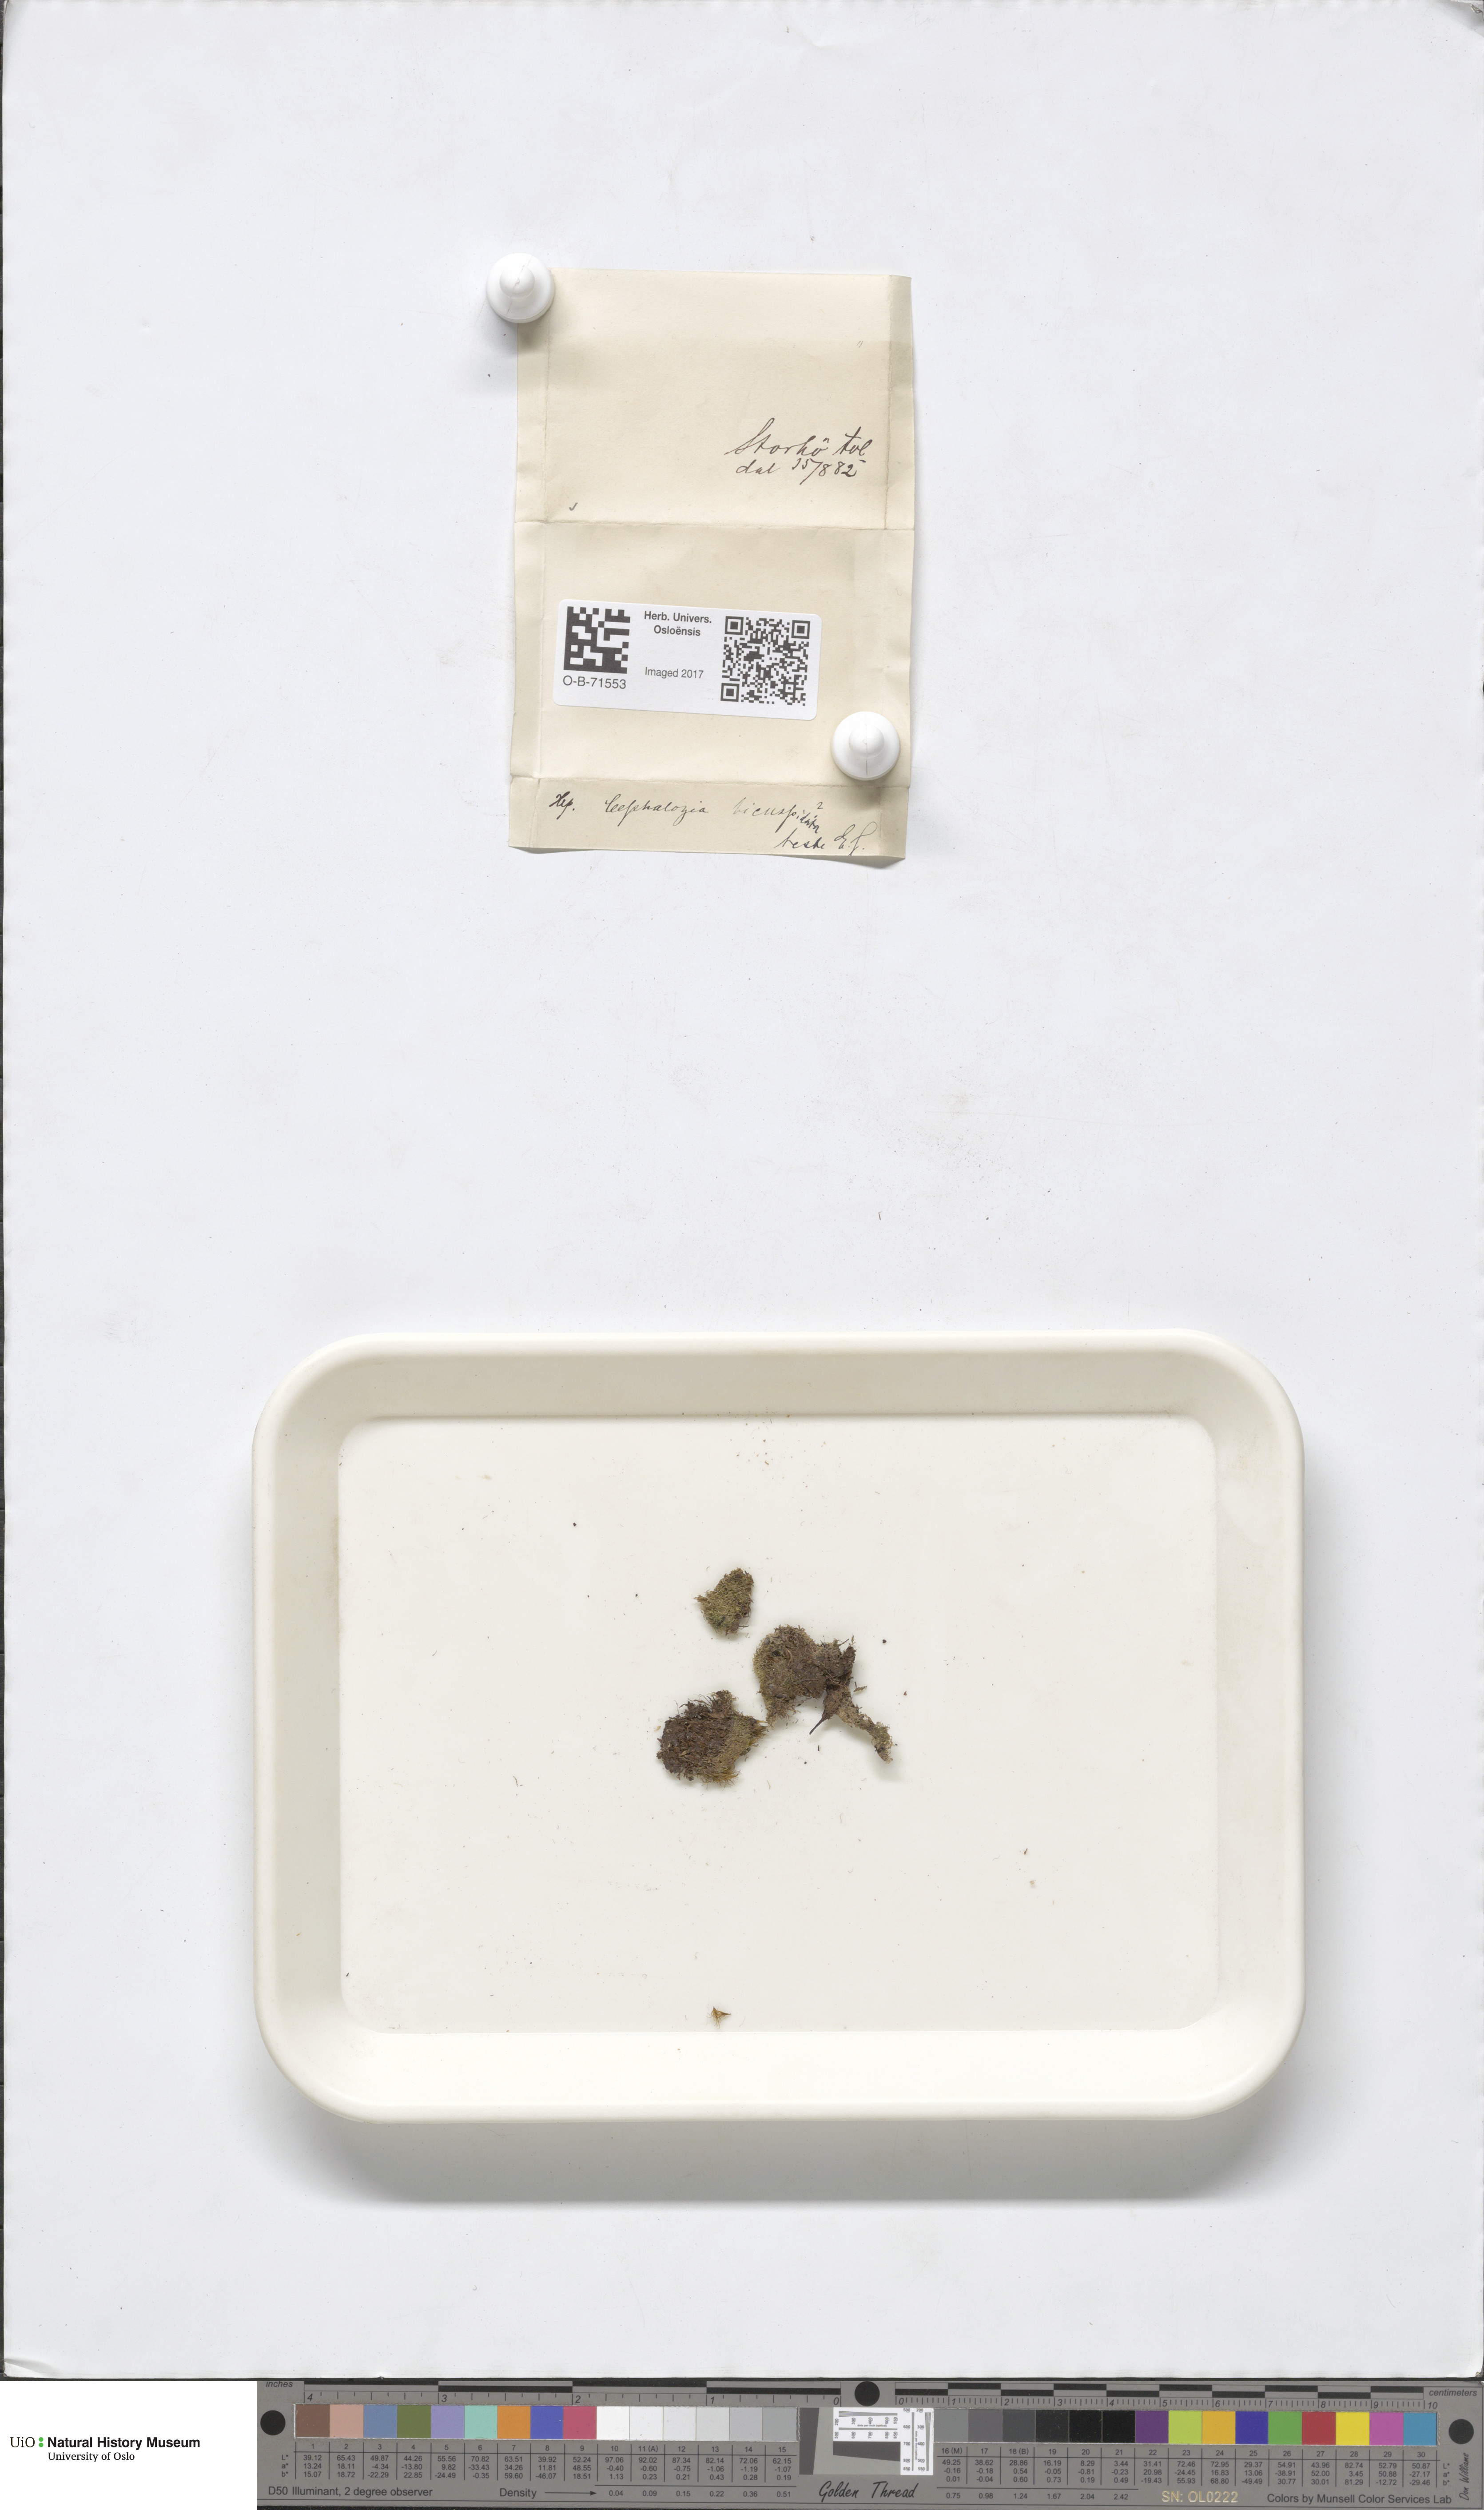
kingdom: Plantae
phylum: Marchantiophyta
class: Jungermanniopsida
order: Jungermanniales
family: Cephaloziaceae
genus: Cephalozia
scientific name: Cephalozia bicuspidata
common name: Two-horned pincerwort
